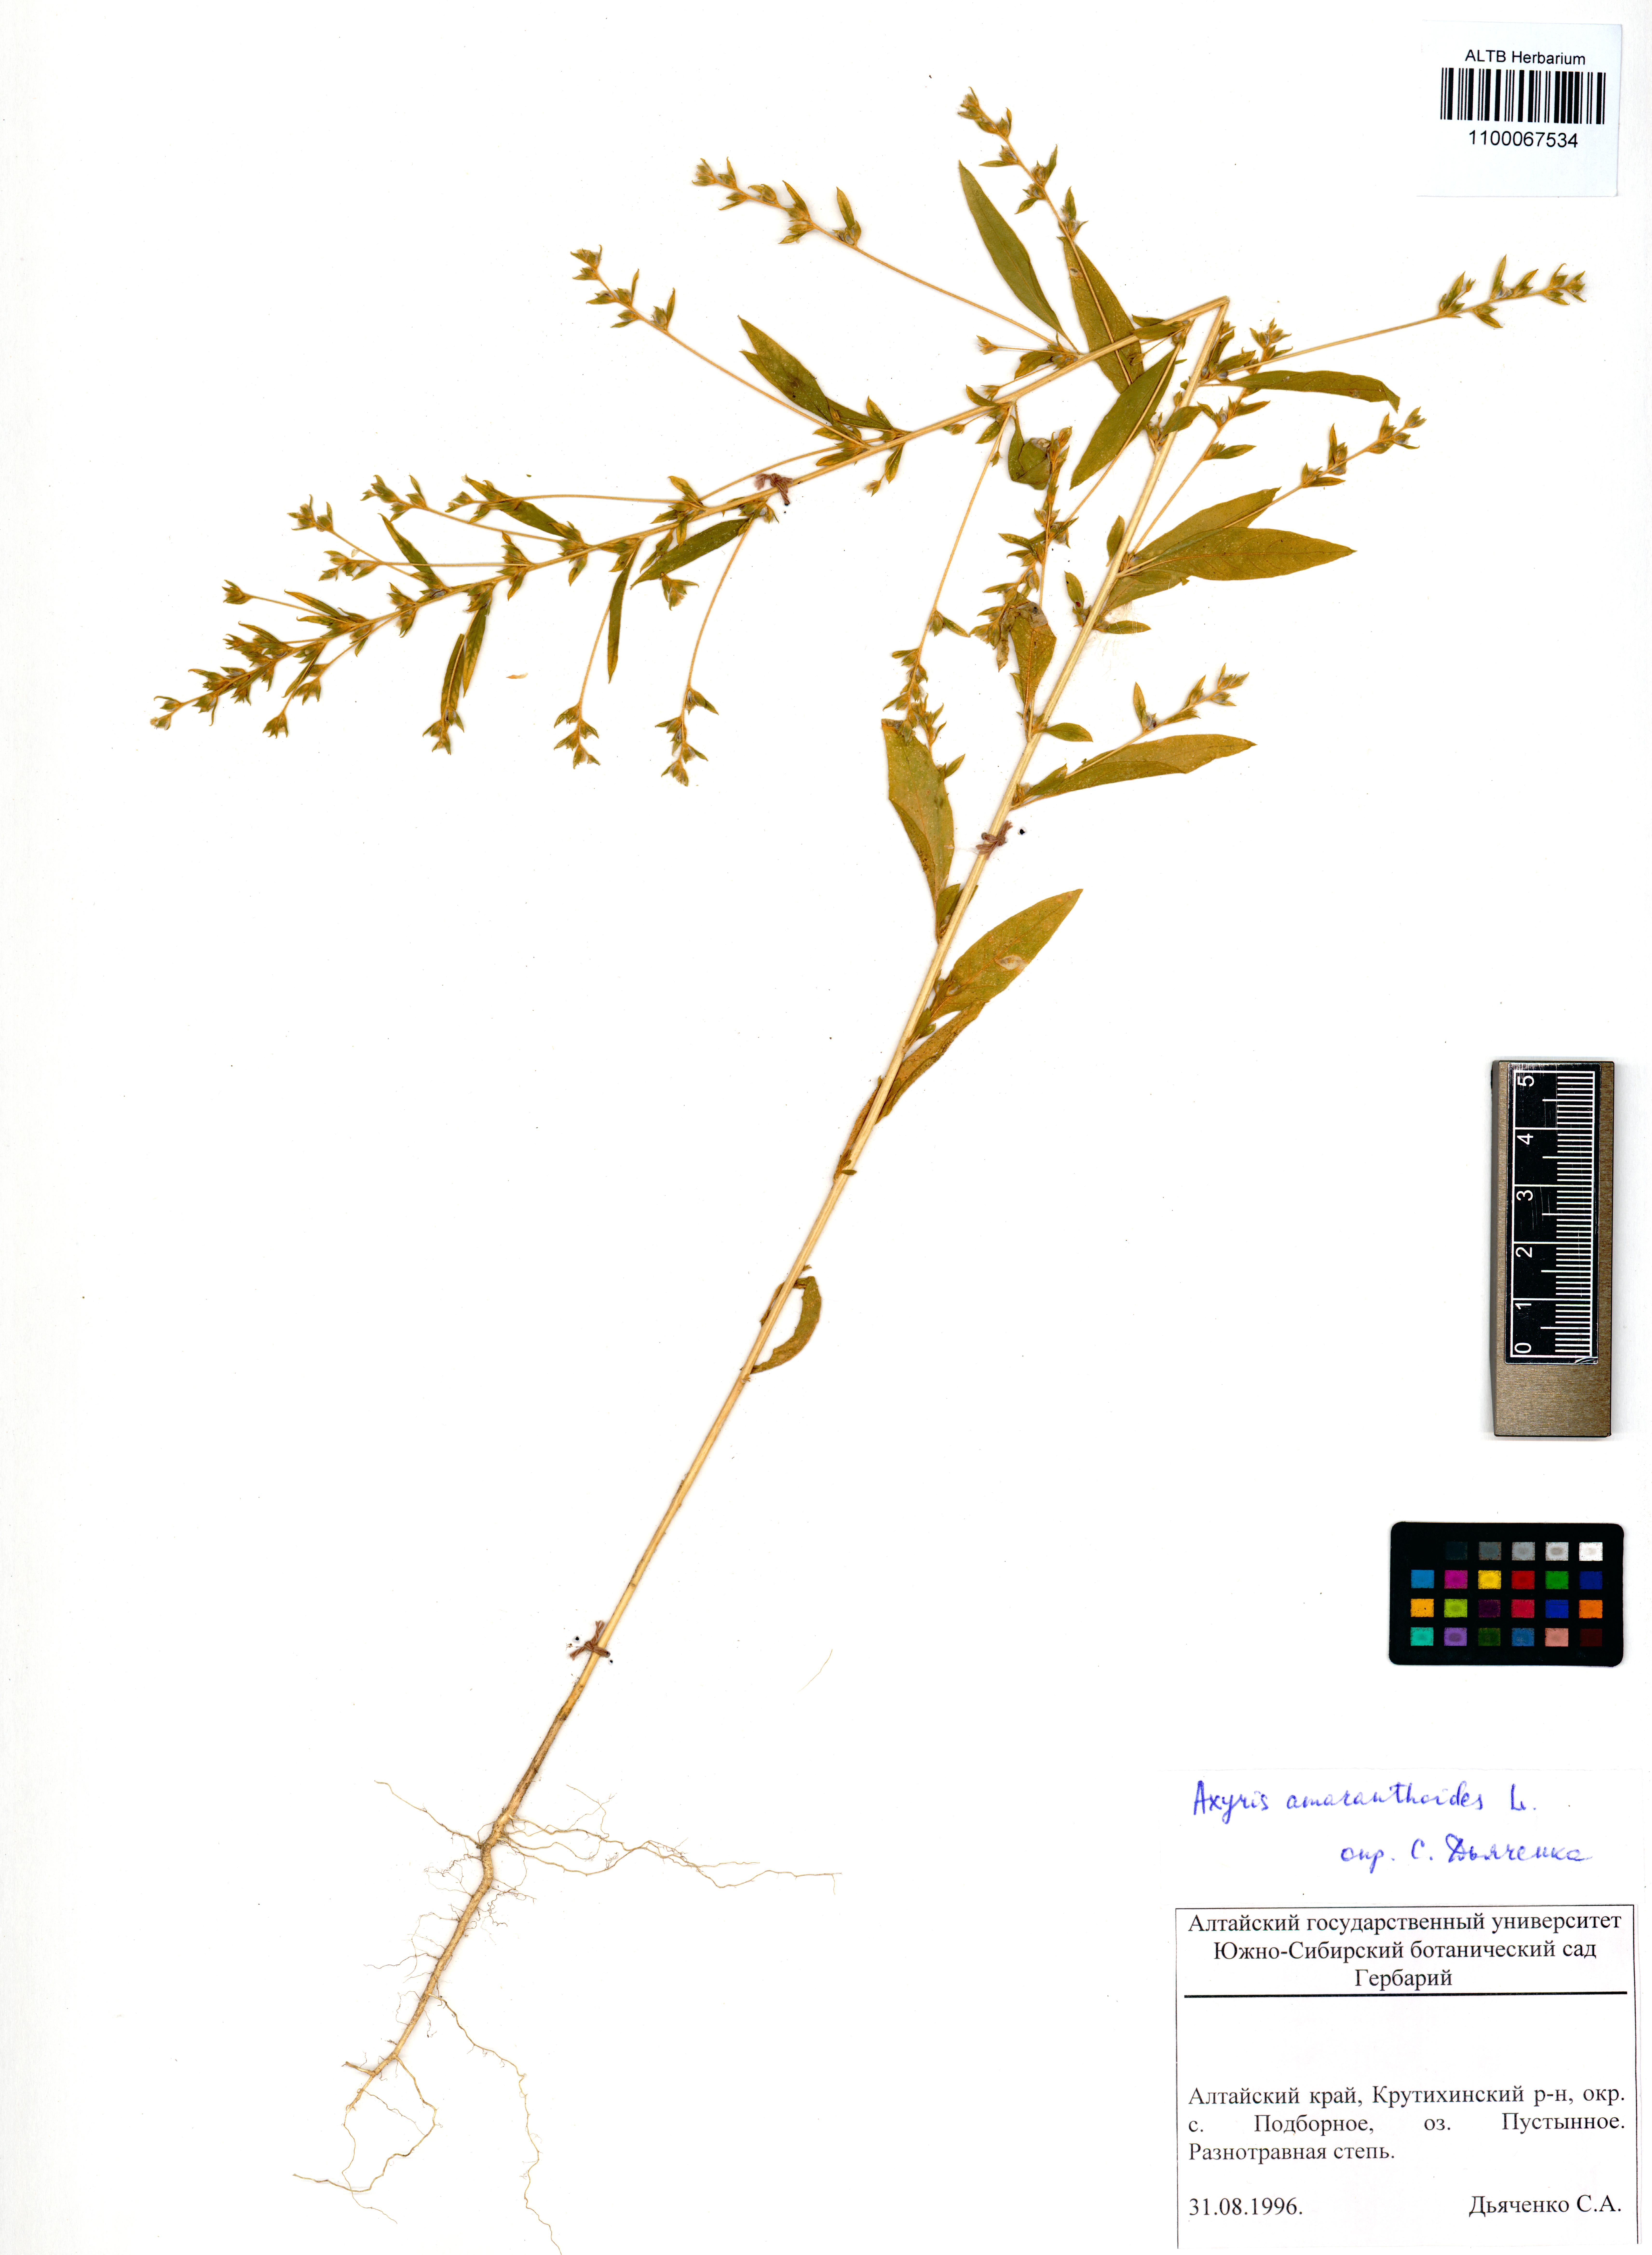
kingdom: Plantae
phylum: Tracheophyta
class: Magnoliopsida
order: Caryophyllales
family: Amaranthaceae
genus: Axyris
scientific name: Axyris amaranthoides
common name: Russian pigweed
